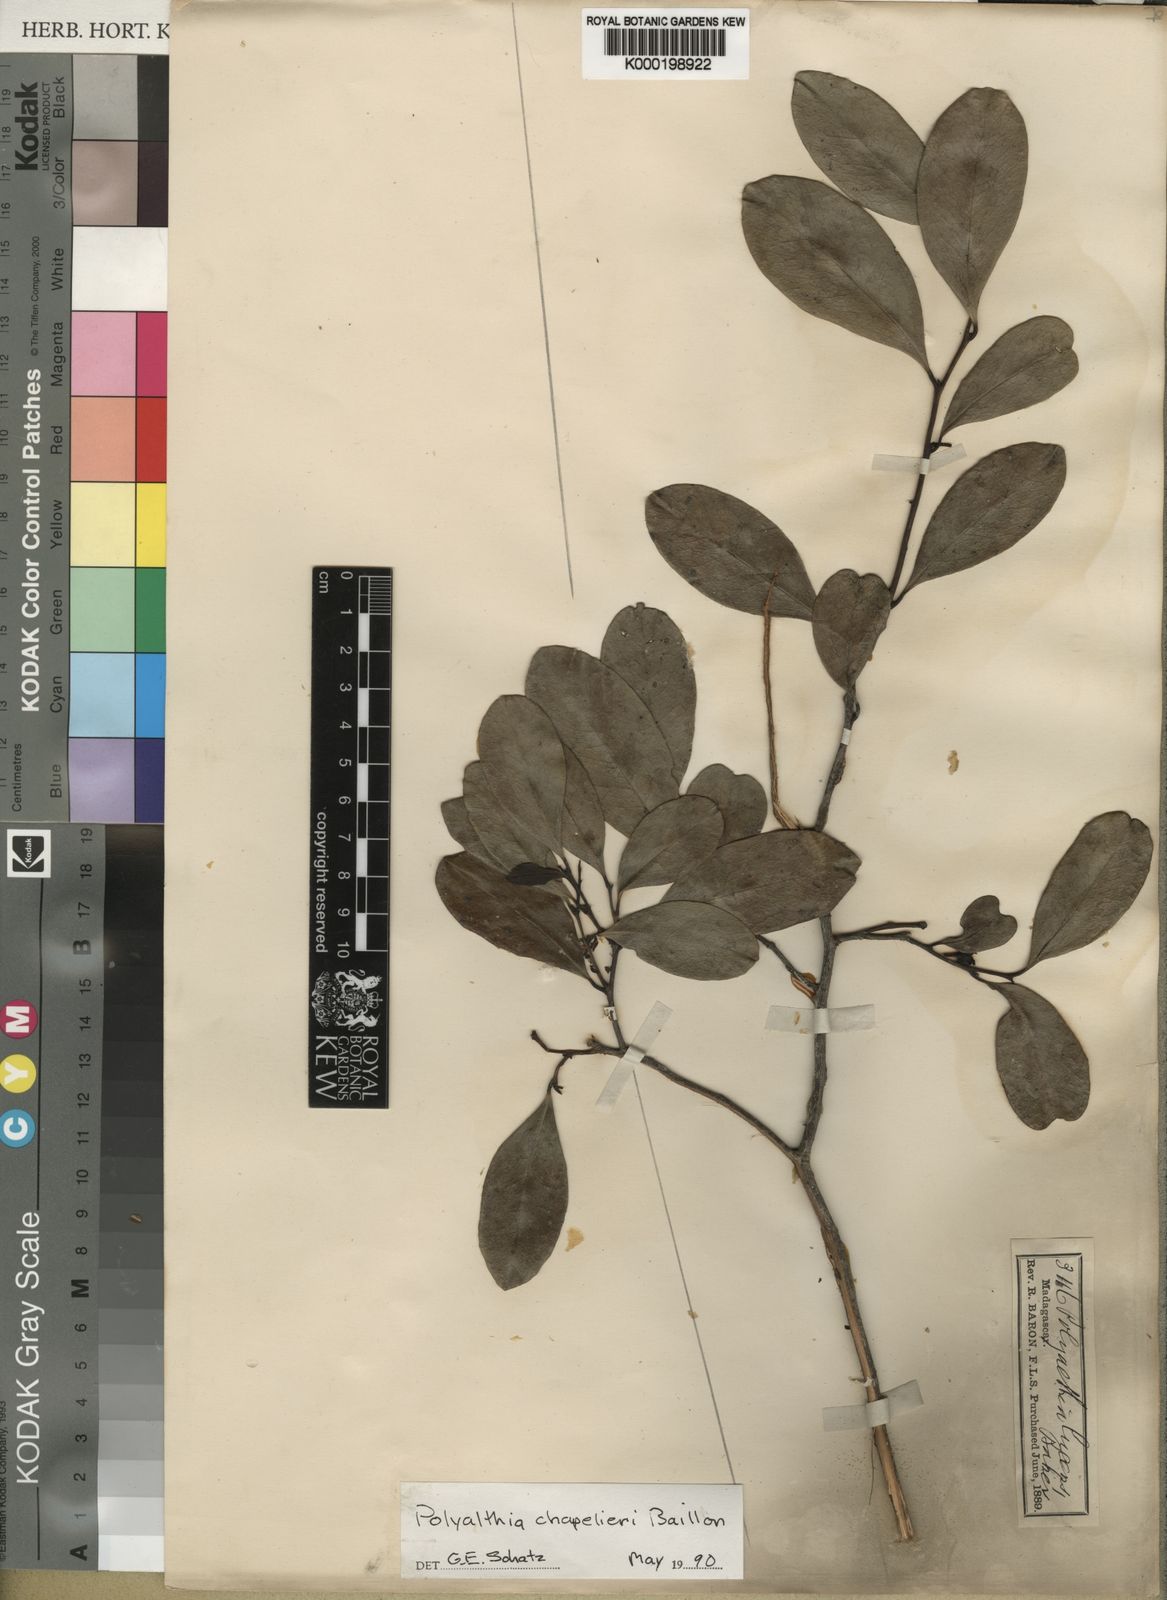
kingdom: Plantae
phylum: Tracheophyta
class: Magnoliopsida
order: Magnoliales
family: Annonaceae
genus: Fenerivia
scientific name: Fenerivia chapelieri
